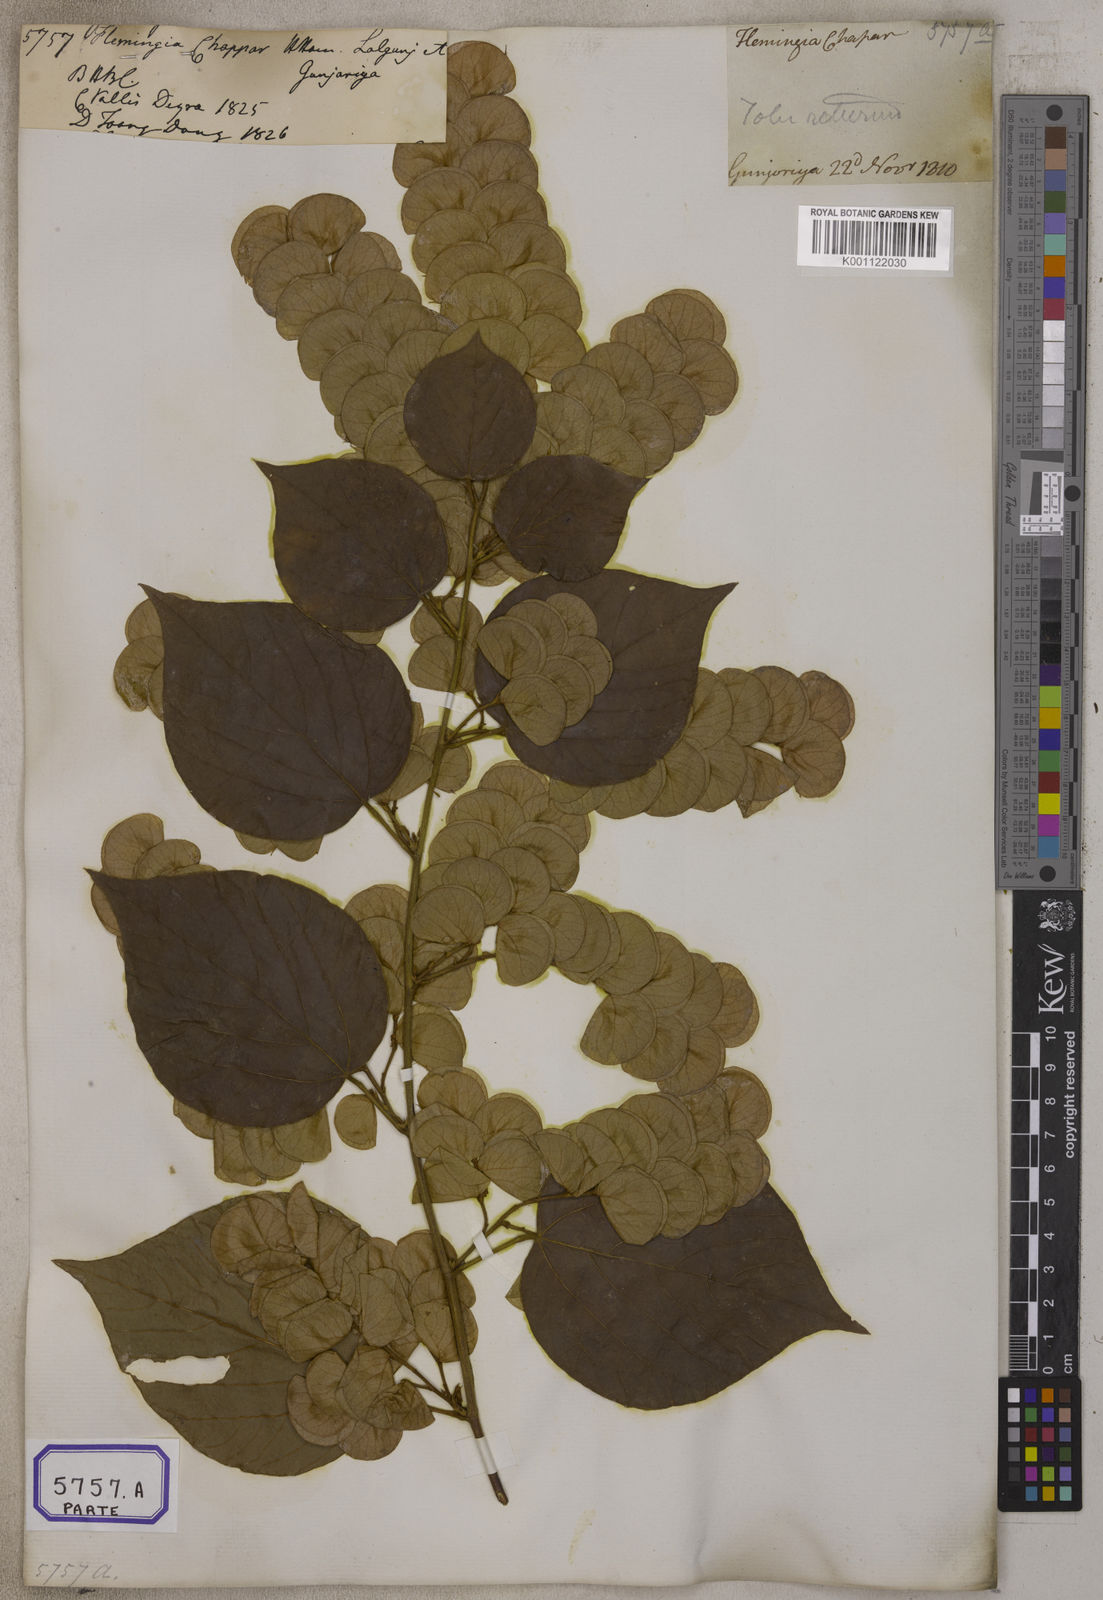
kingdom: Plantae
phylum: Tracheophyta
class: Magnoliopsida
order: Fabales
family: Fabaceae
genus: Flemingia
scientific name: Flemingia
